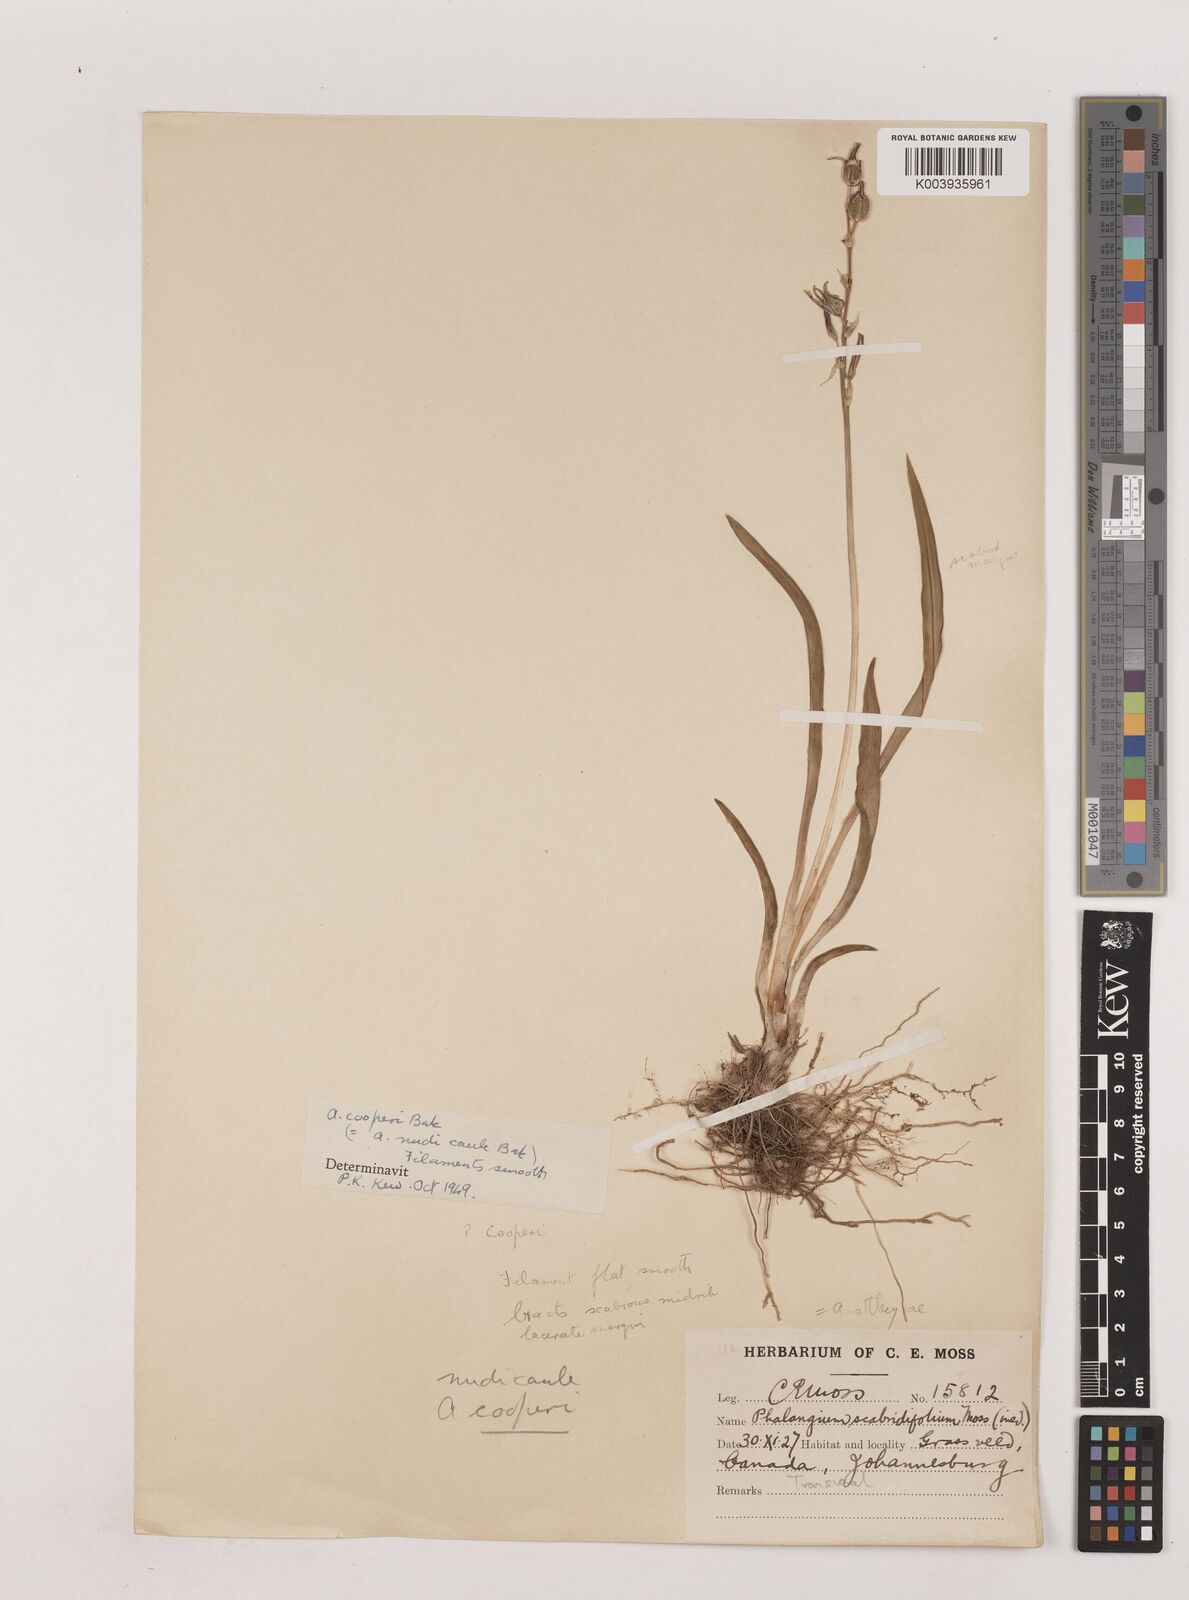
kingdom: Plantae
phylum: Tracheophyta
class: Liliopsida
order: Asparagales
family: Asparagaceae
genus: Chlorophytum
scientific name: Chlorophytum cooperi
